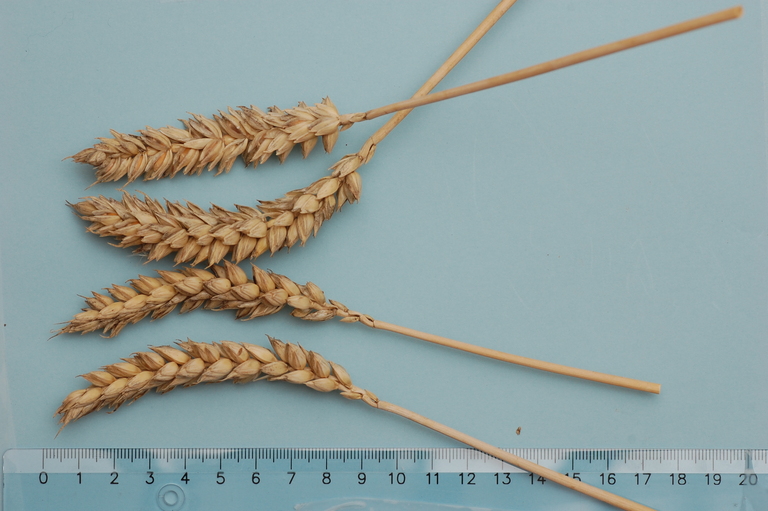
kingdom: Plantae
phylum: Tracheophyta
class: Liliopsida
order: Poales
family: Poaceae
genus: Triticum
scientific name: Triticum aestivum
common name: Common wheat
